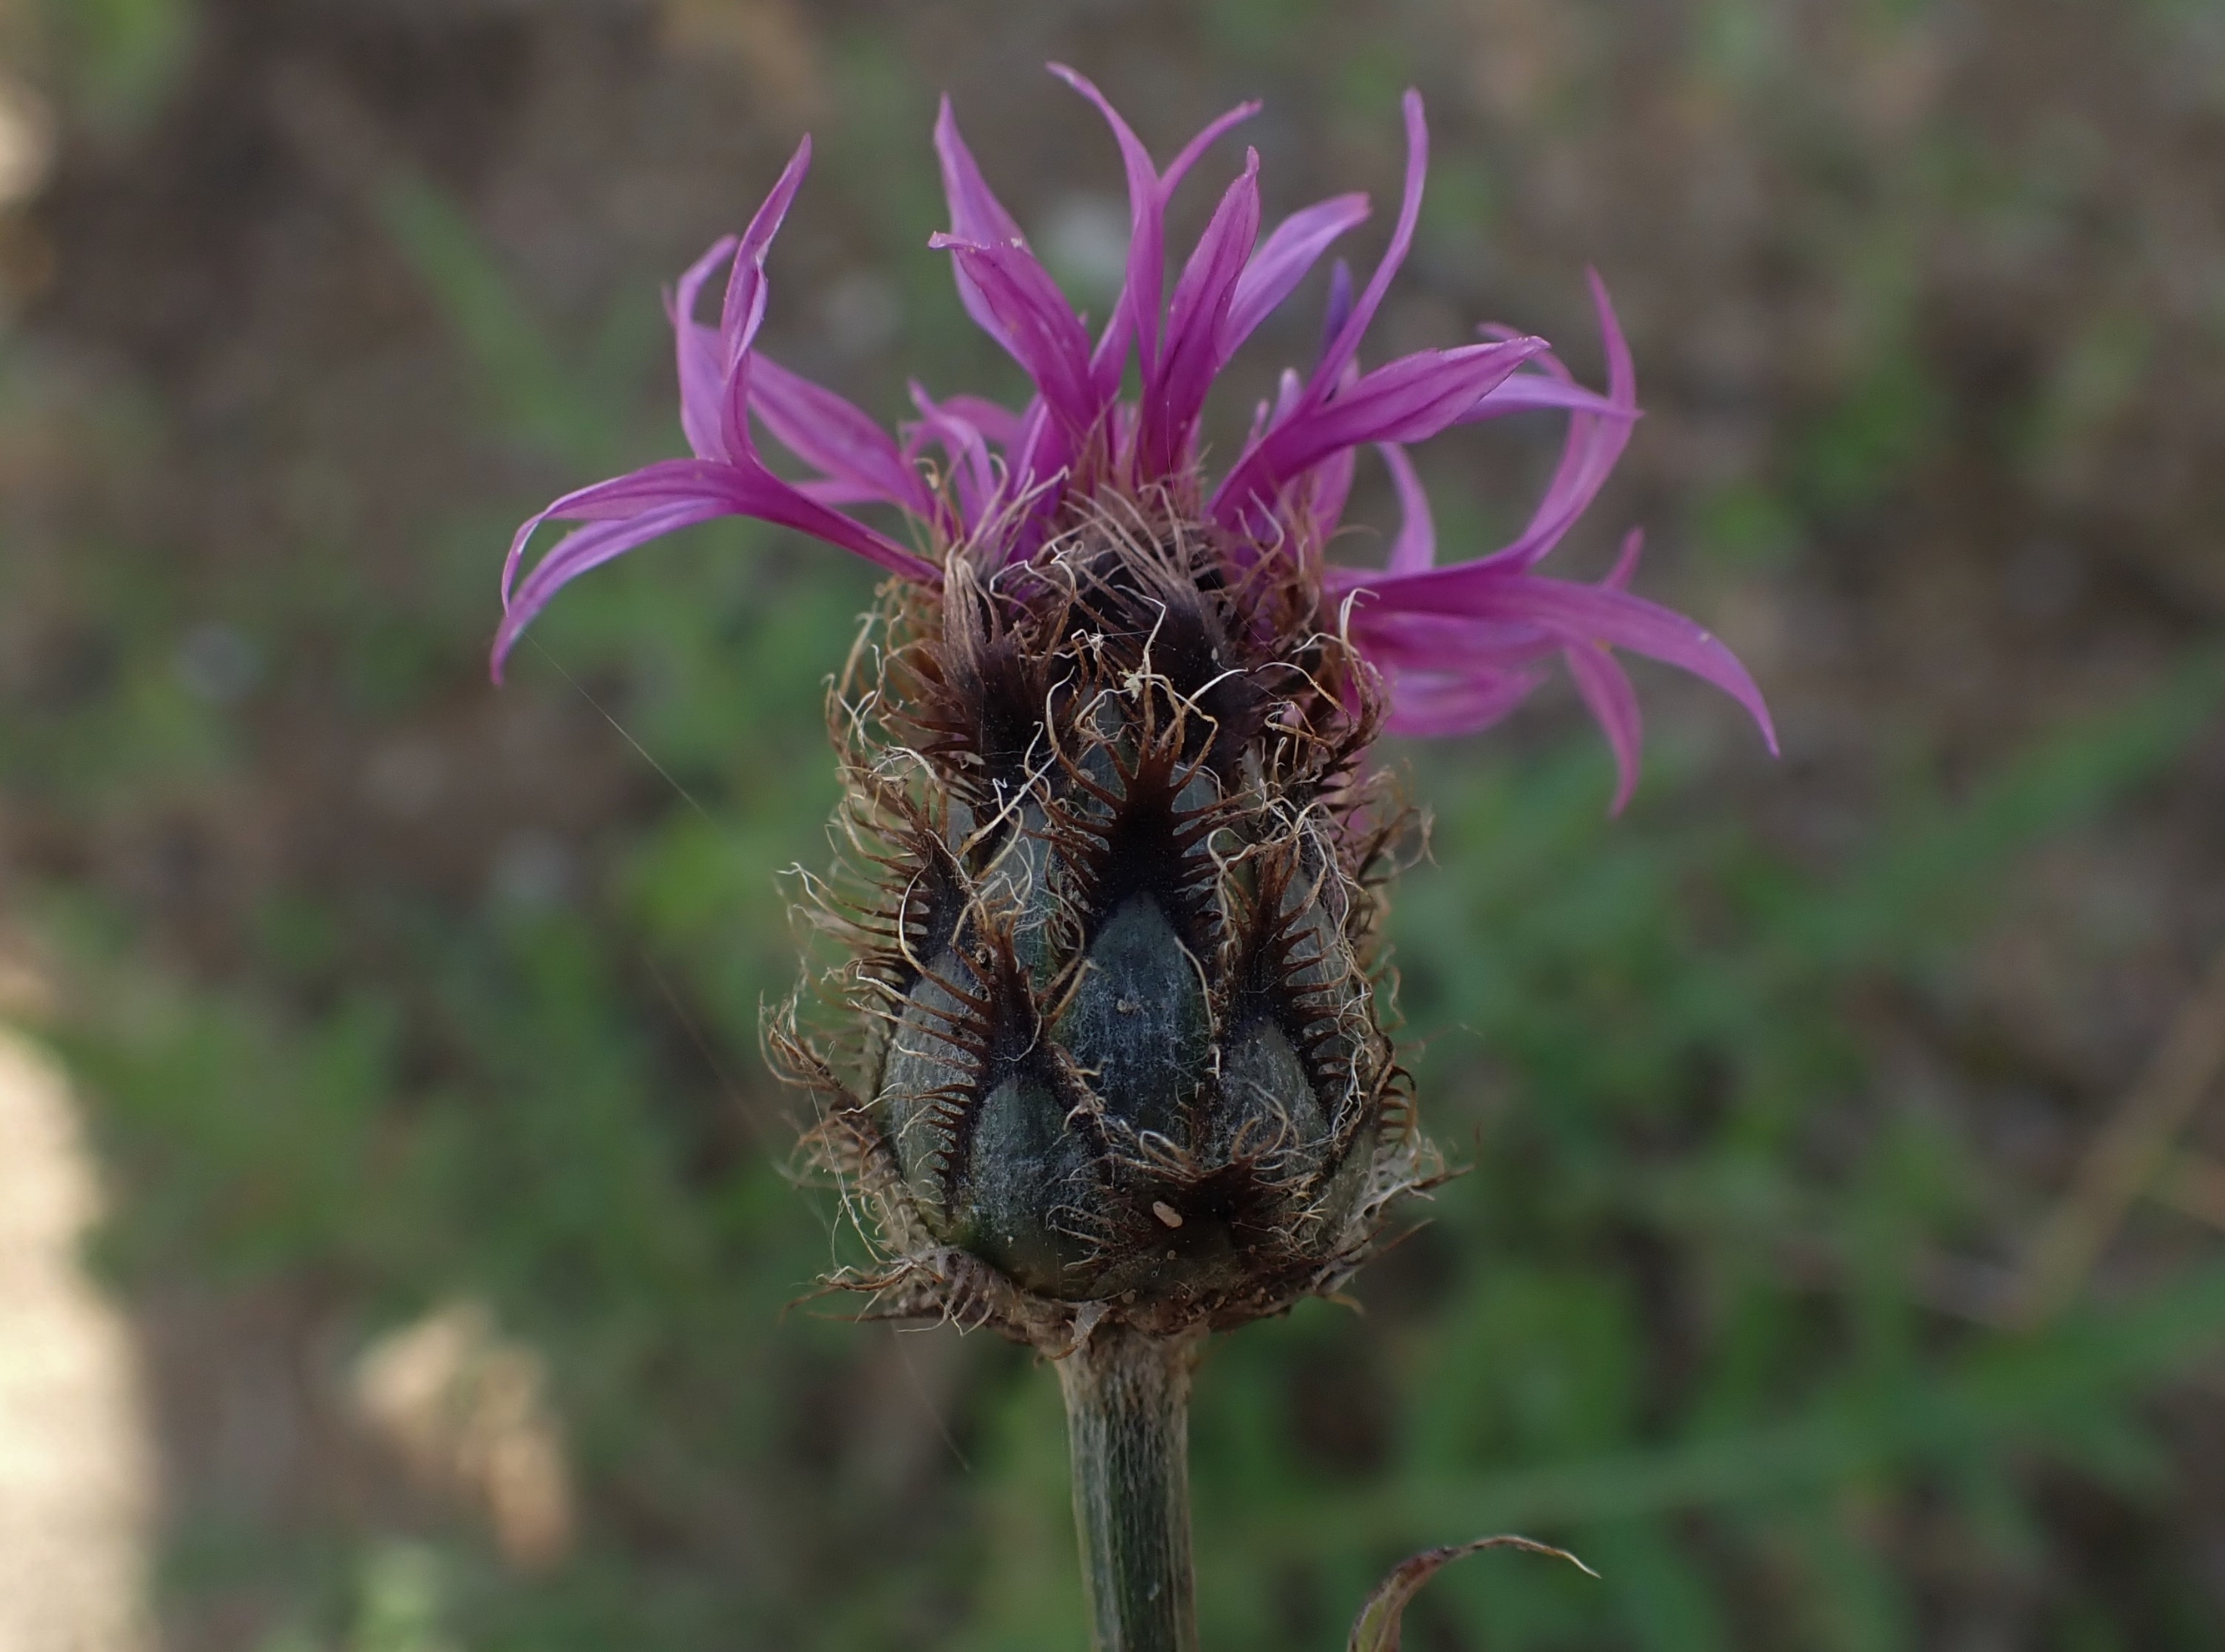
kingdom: Plantae
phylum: Tracheophyta
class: Magnoliopsida
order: Asterales
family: Asteraceae
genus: Centaurea
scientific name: Centaurea scabiosa
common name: Stor knopurt
